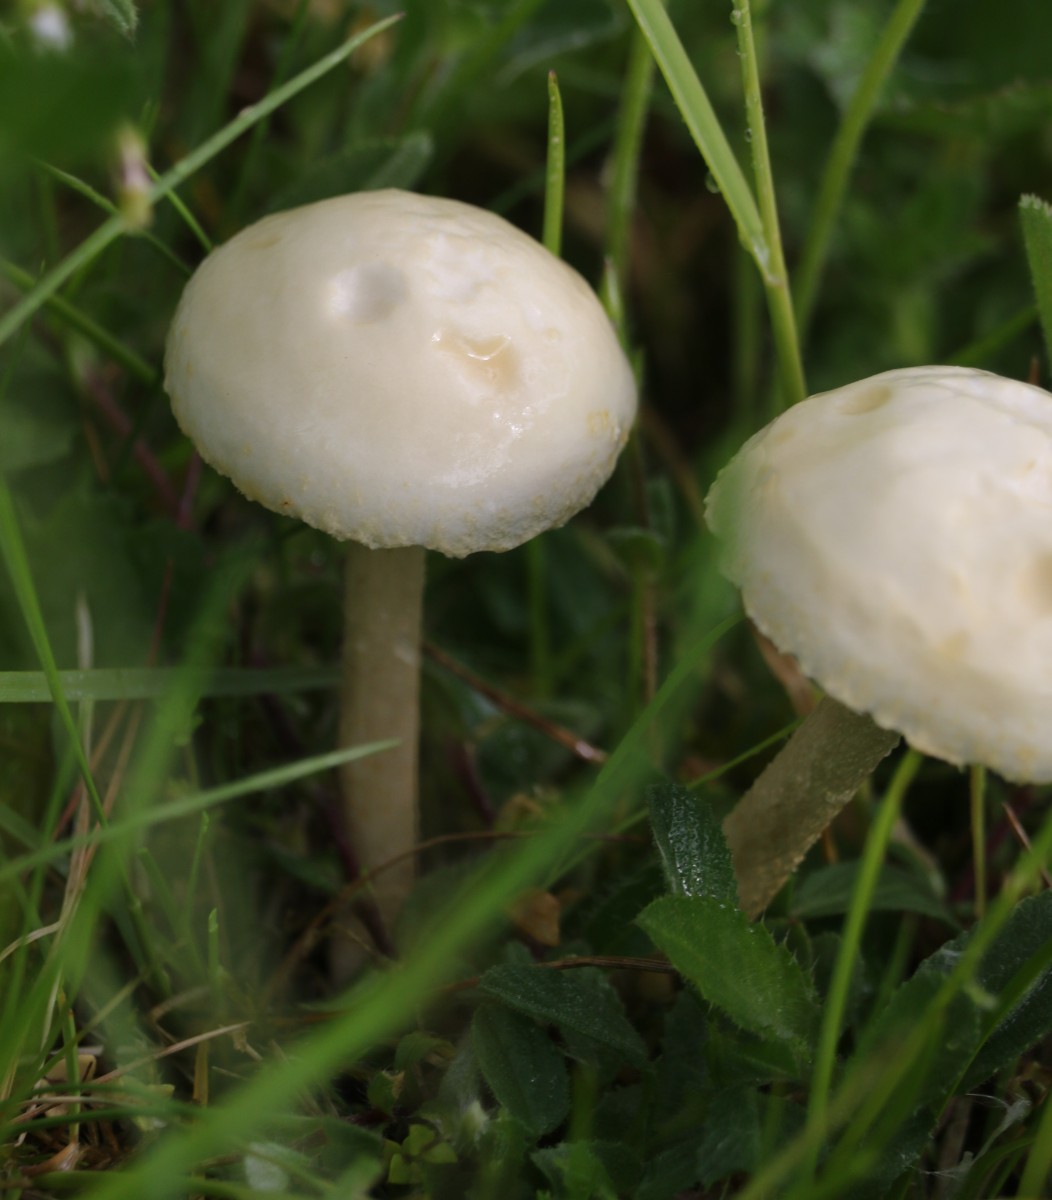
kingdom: Fungi
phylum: Basidiomycota
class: Agaricomycetes
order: Agaricales
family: Strophariaceae
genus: Agrocybe
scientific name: Agrocybe
